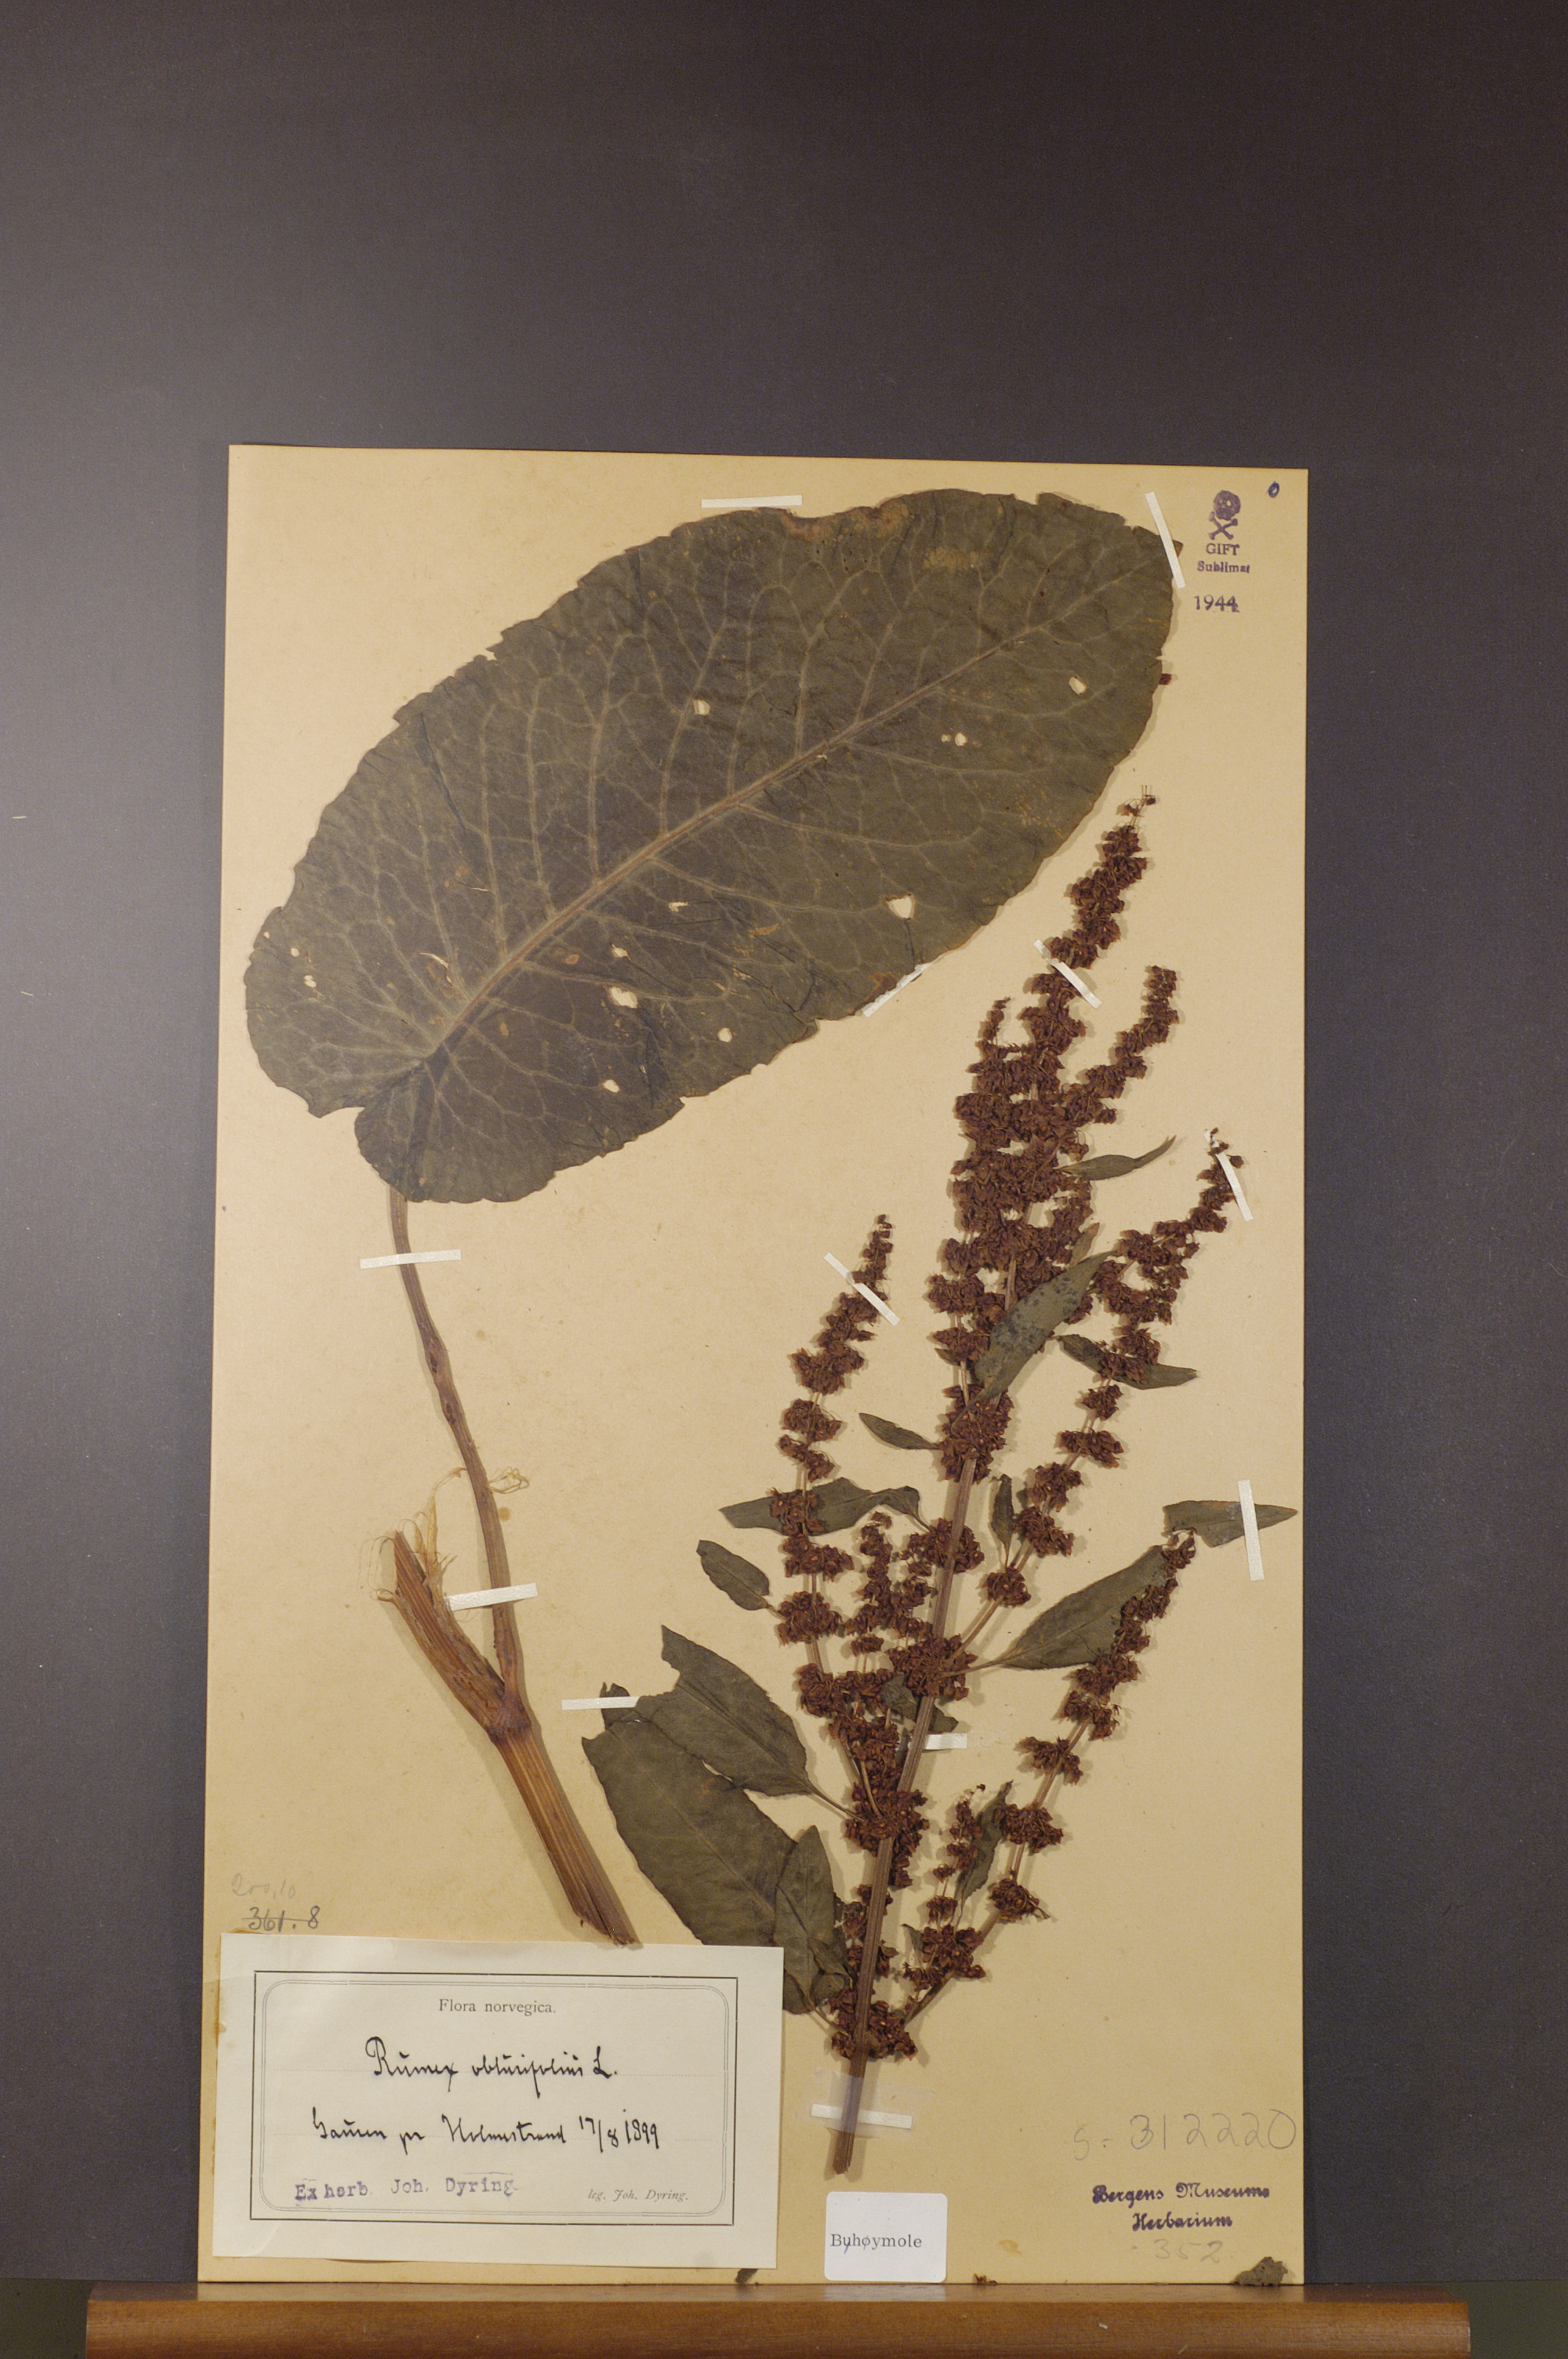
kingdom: Plantae
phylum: Tracheophyta
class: Magnoliopsida
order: Caryophyllales
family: Polygonaceae
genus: Rumex
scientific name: Rumex obtusifolius
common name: Bitter dock
